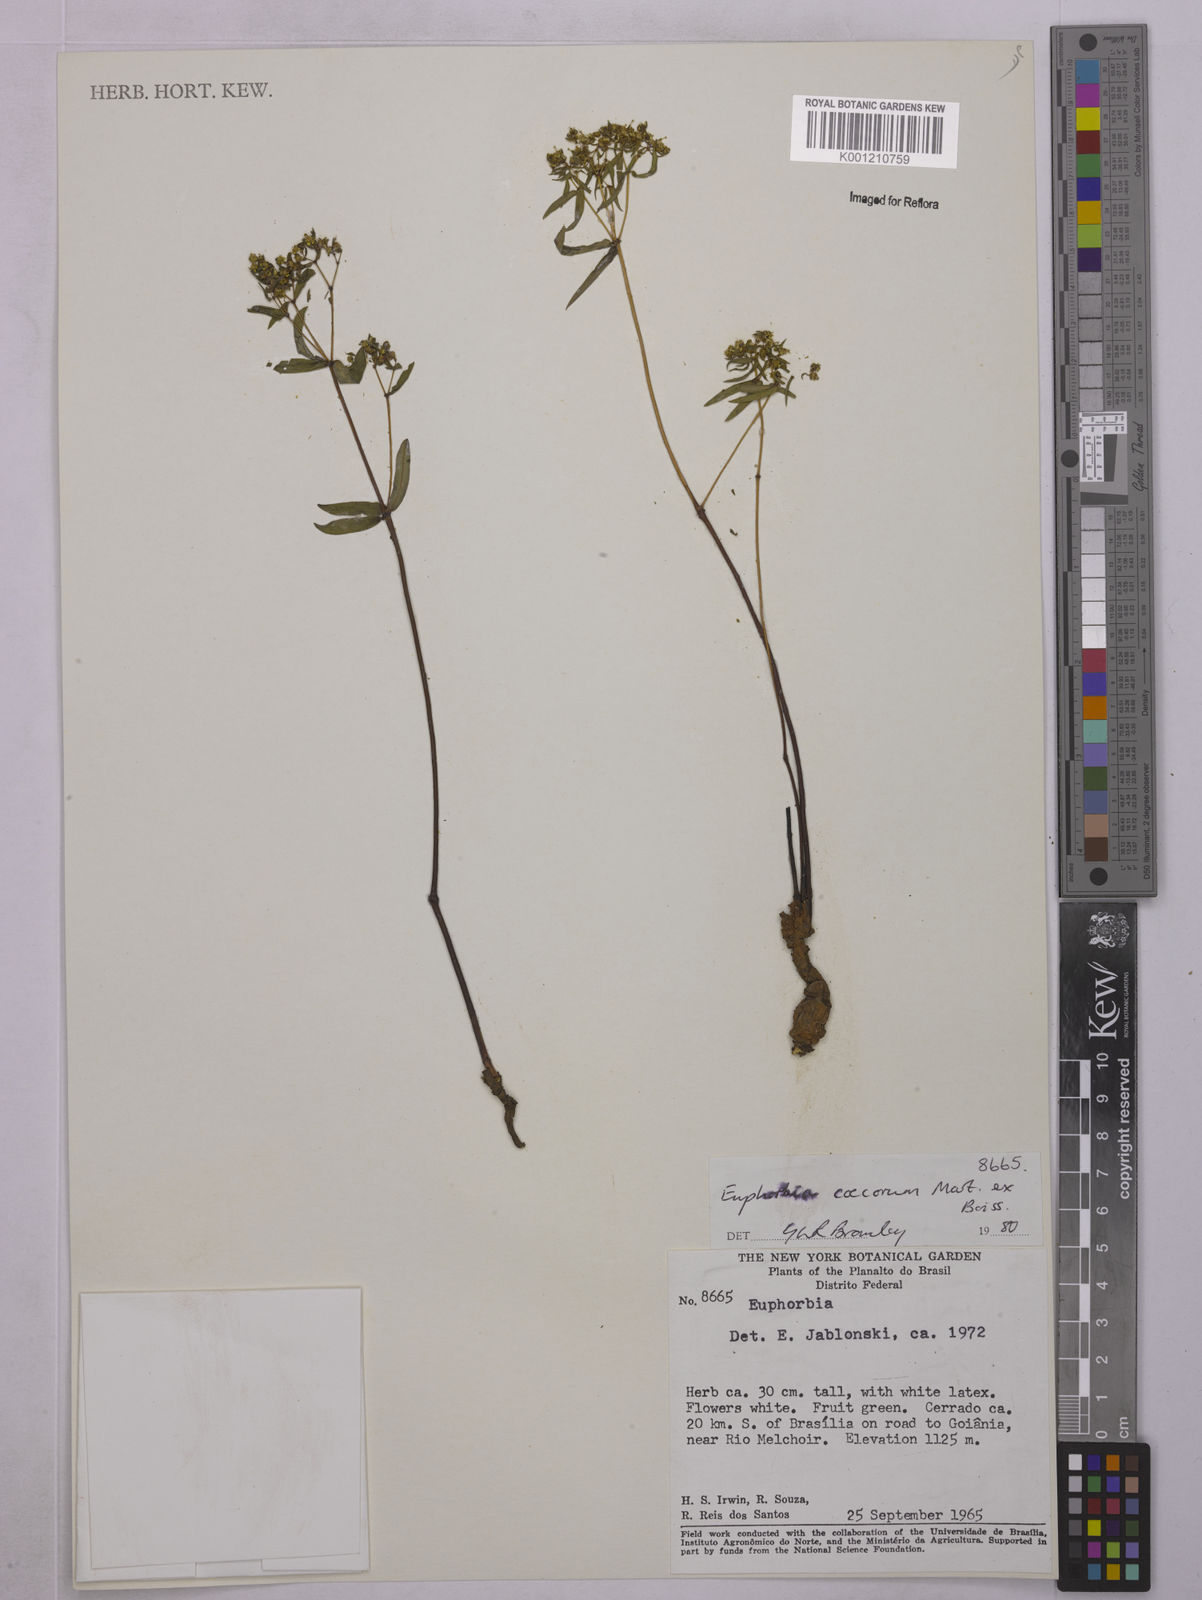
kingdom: Plantae
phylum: Tracheophyta
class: Magnoliopsida
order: Malpighiales
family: Euphorbiaceae
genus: Euphorbia
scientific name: Euphorbia potentilloides
